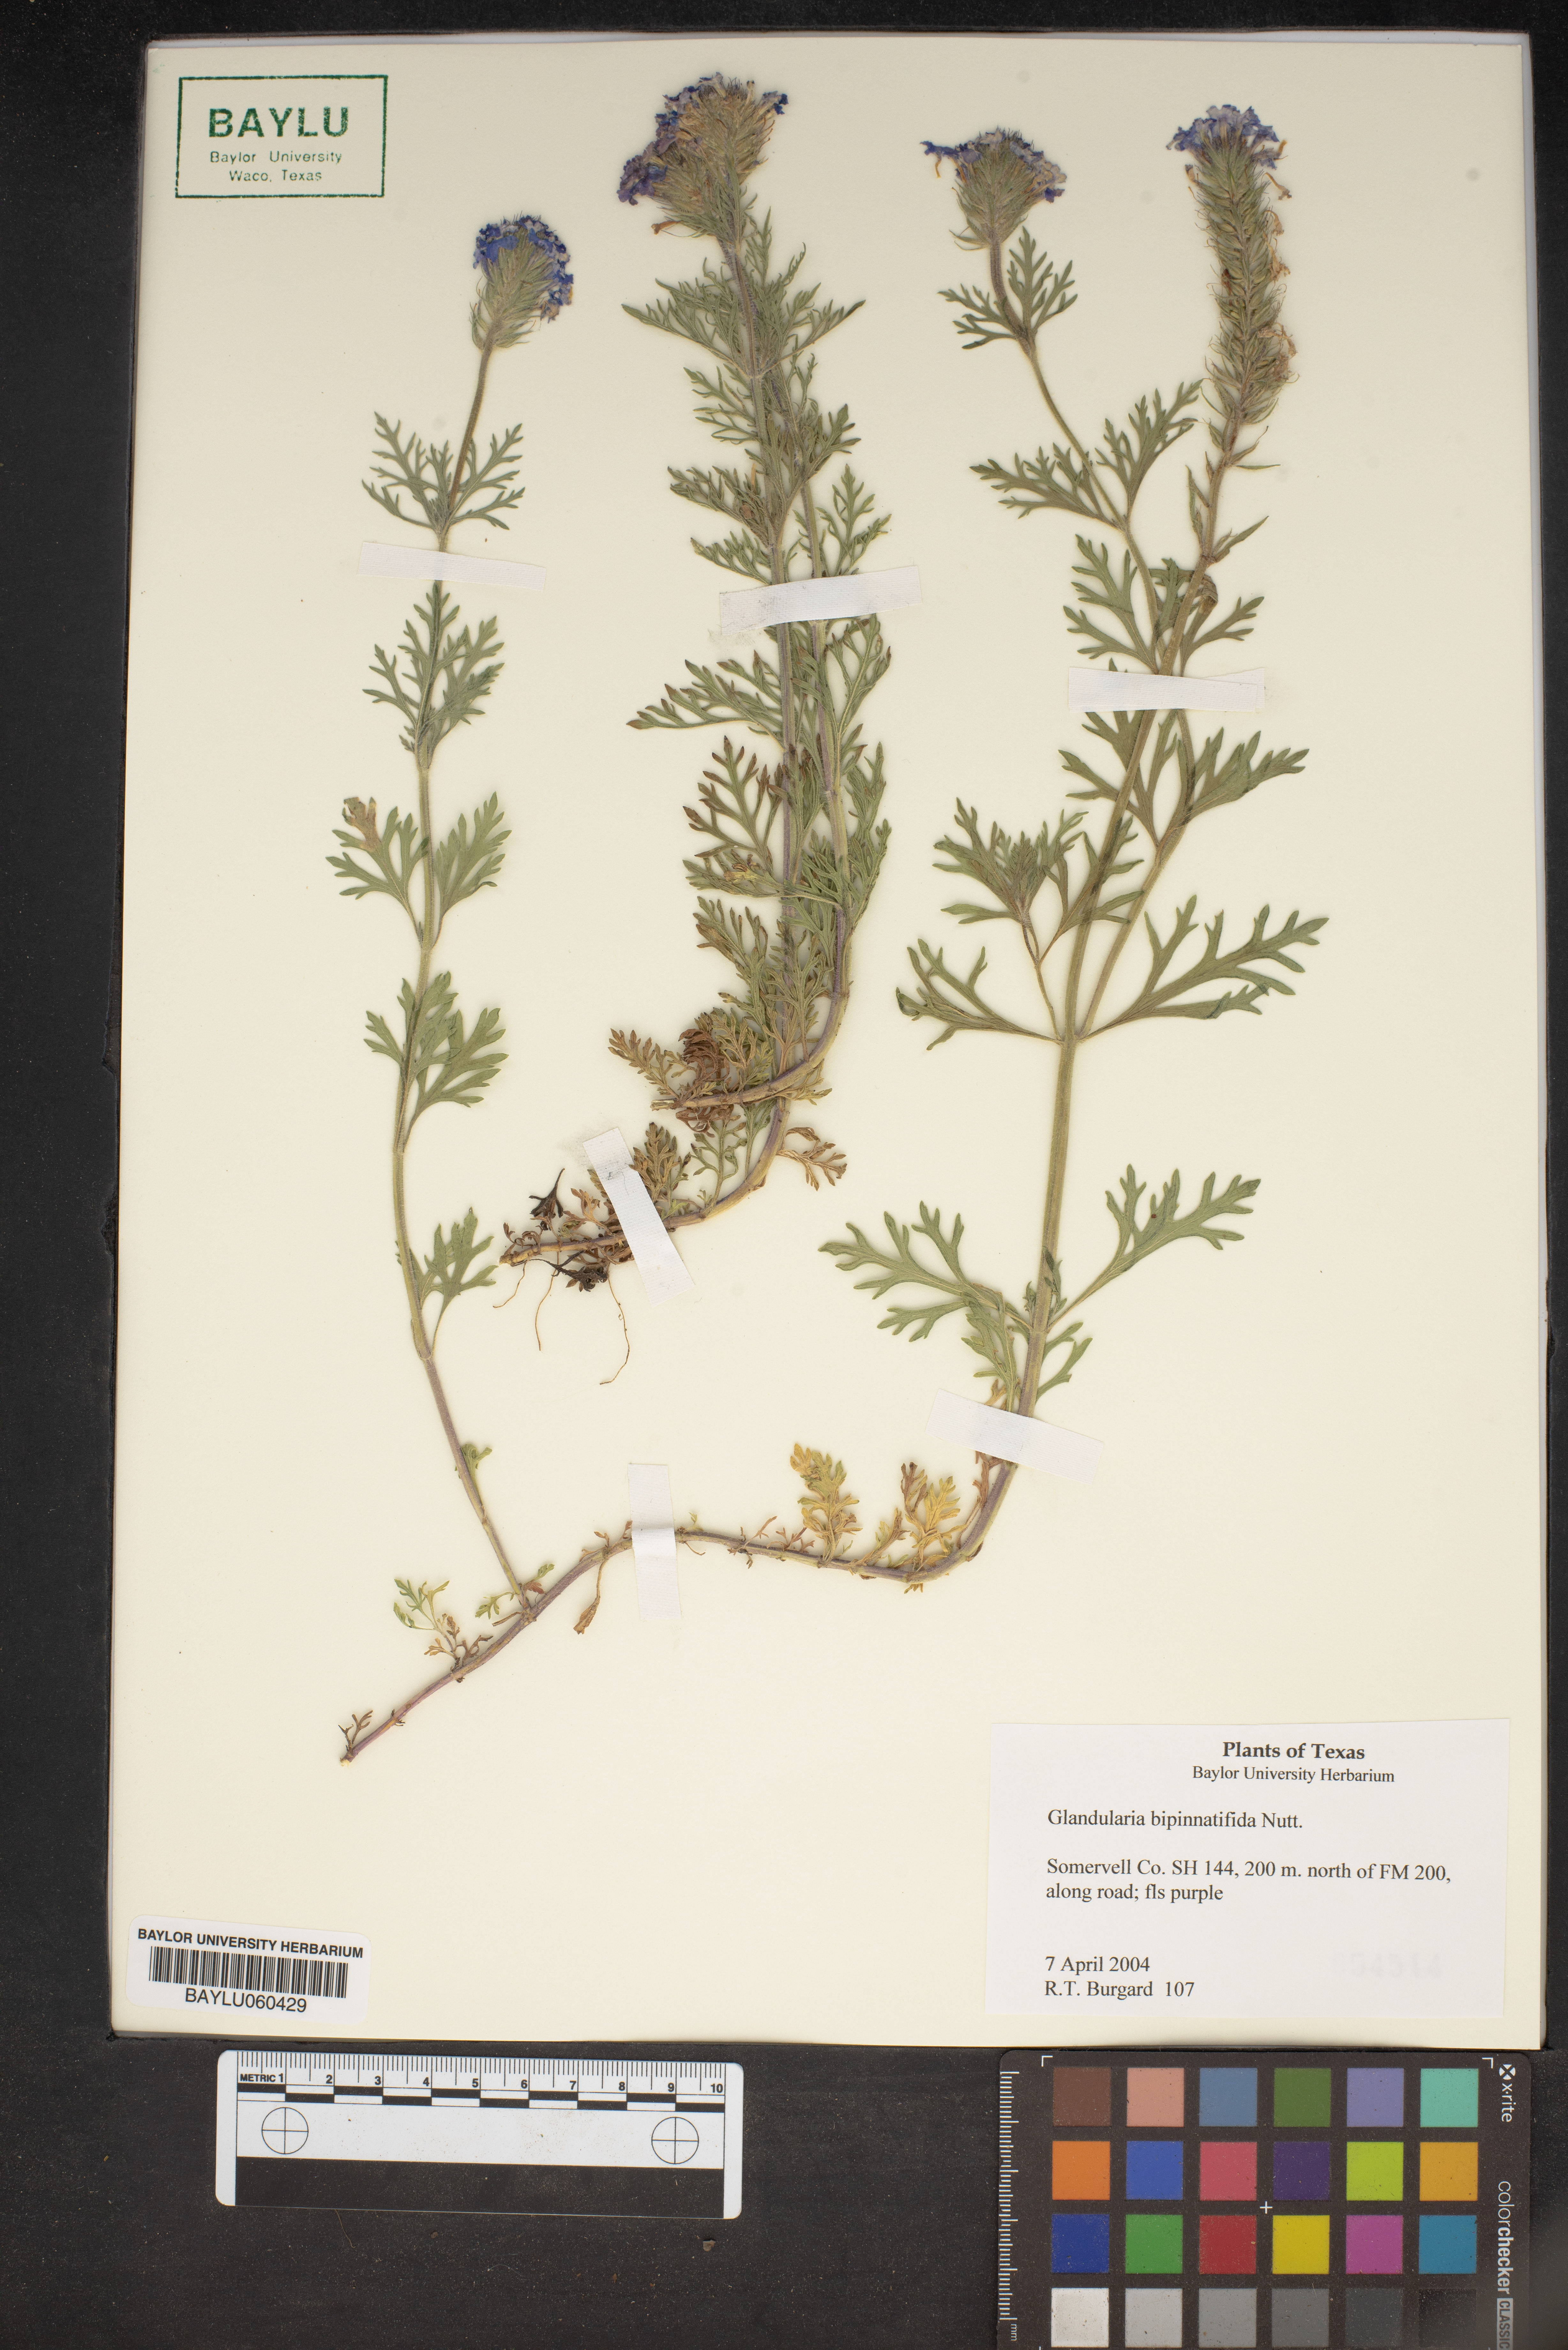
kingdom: Plantae
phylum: Tracheophyta
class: Magnoliopsida
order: Lamiales
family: Verbenaceae
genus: Verbena
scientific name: Verbena bipinnatifida
